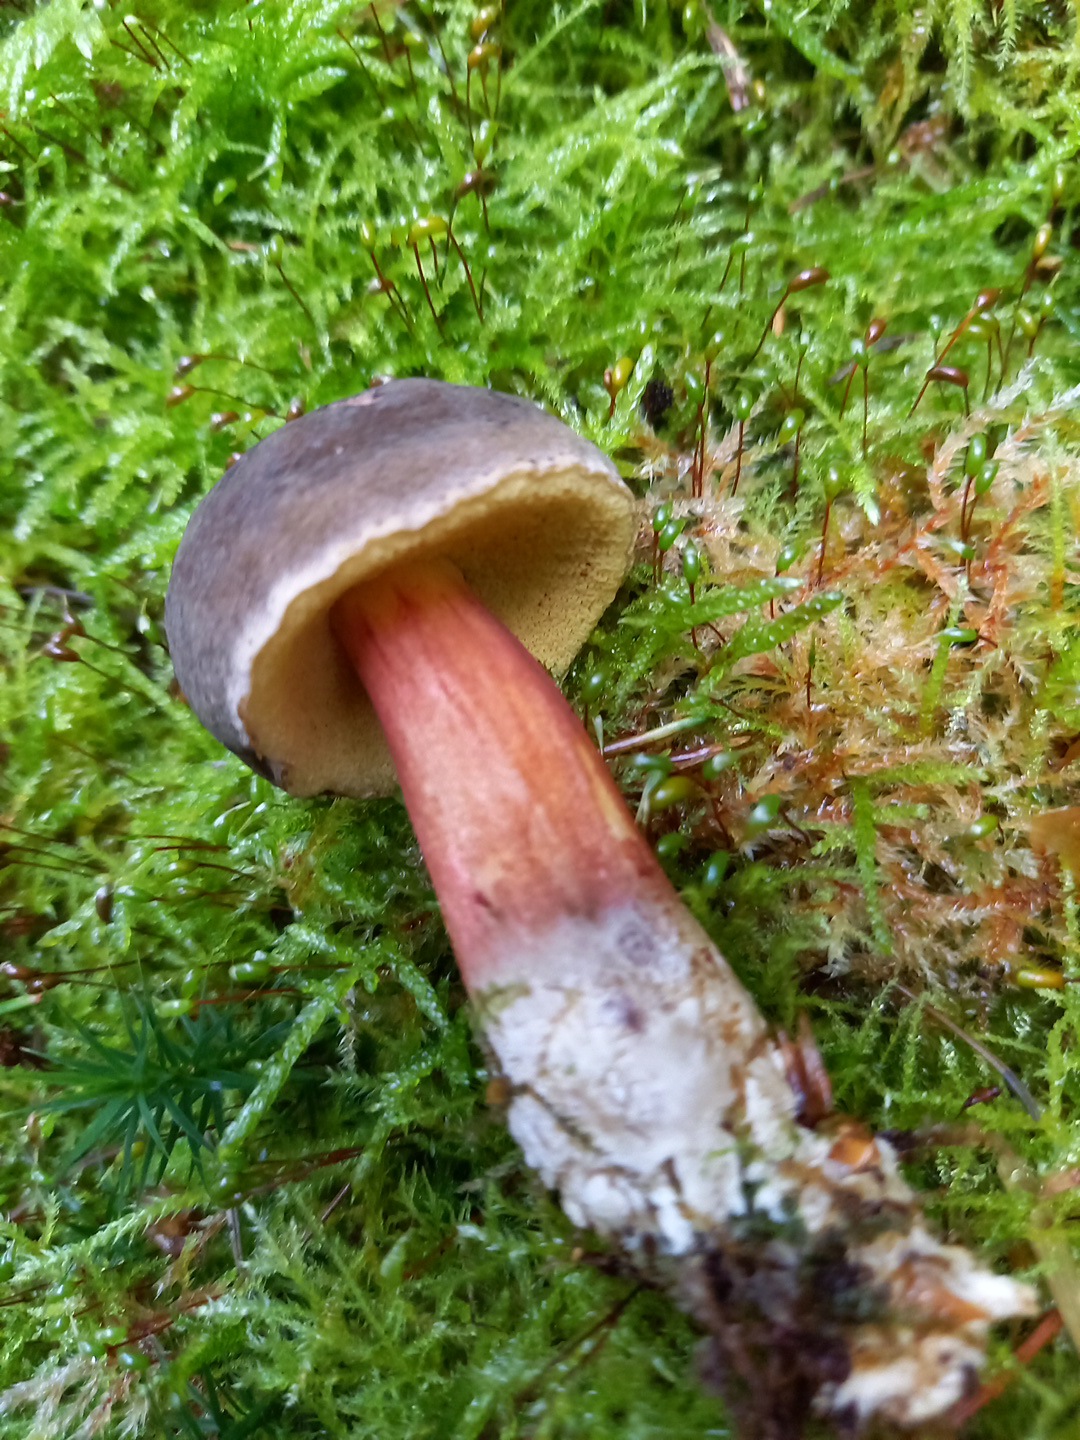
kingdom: Fungi
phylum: Basidiomycota
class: Agaricomycetes
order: Boletales
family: Boletaceae
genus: Xerocomellus
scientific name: Xerocomellus pruinatus
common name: dugget rørhat
